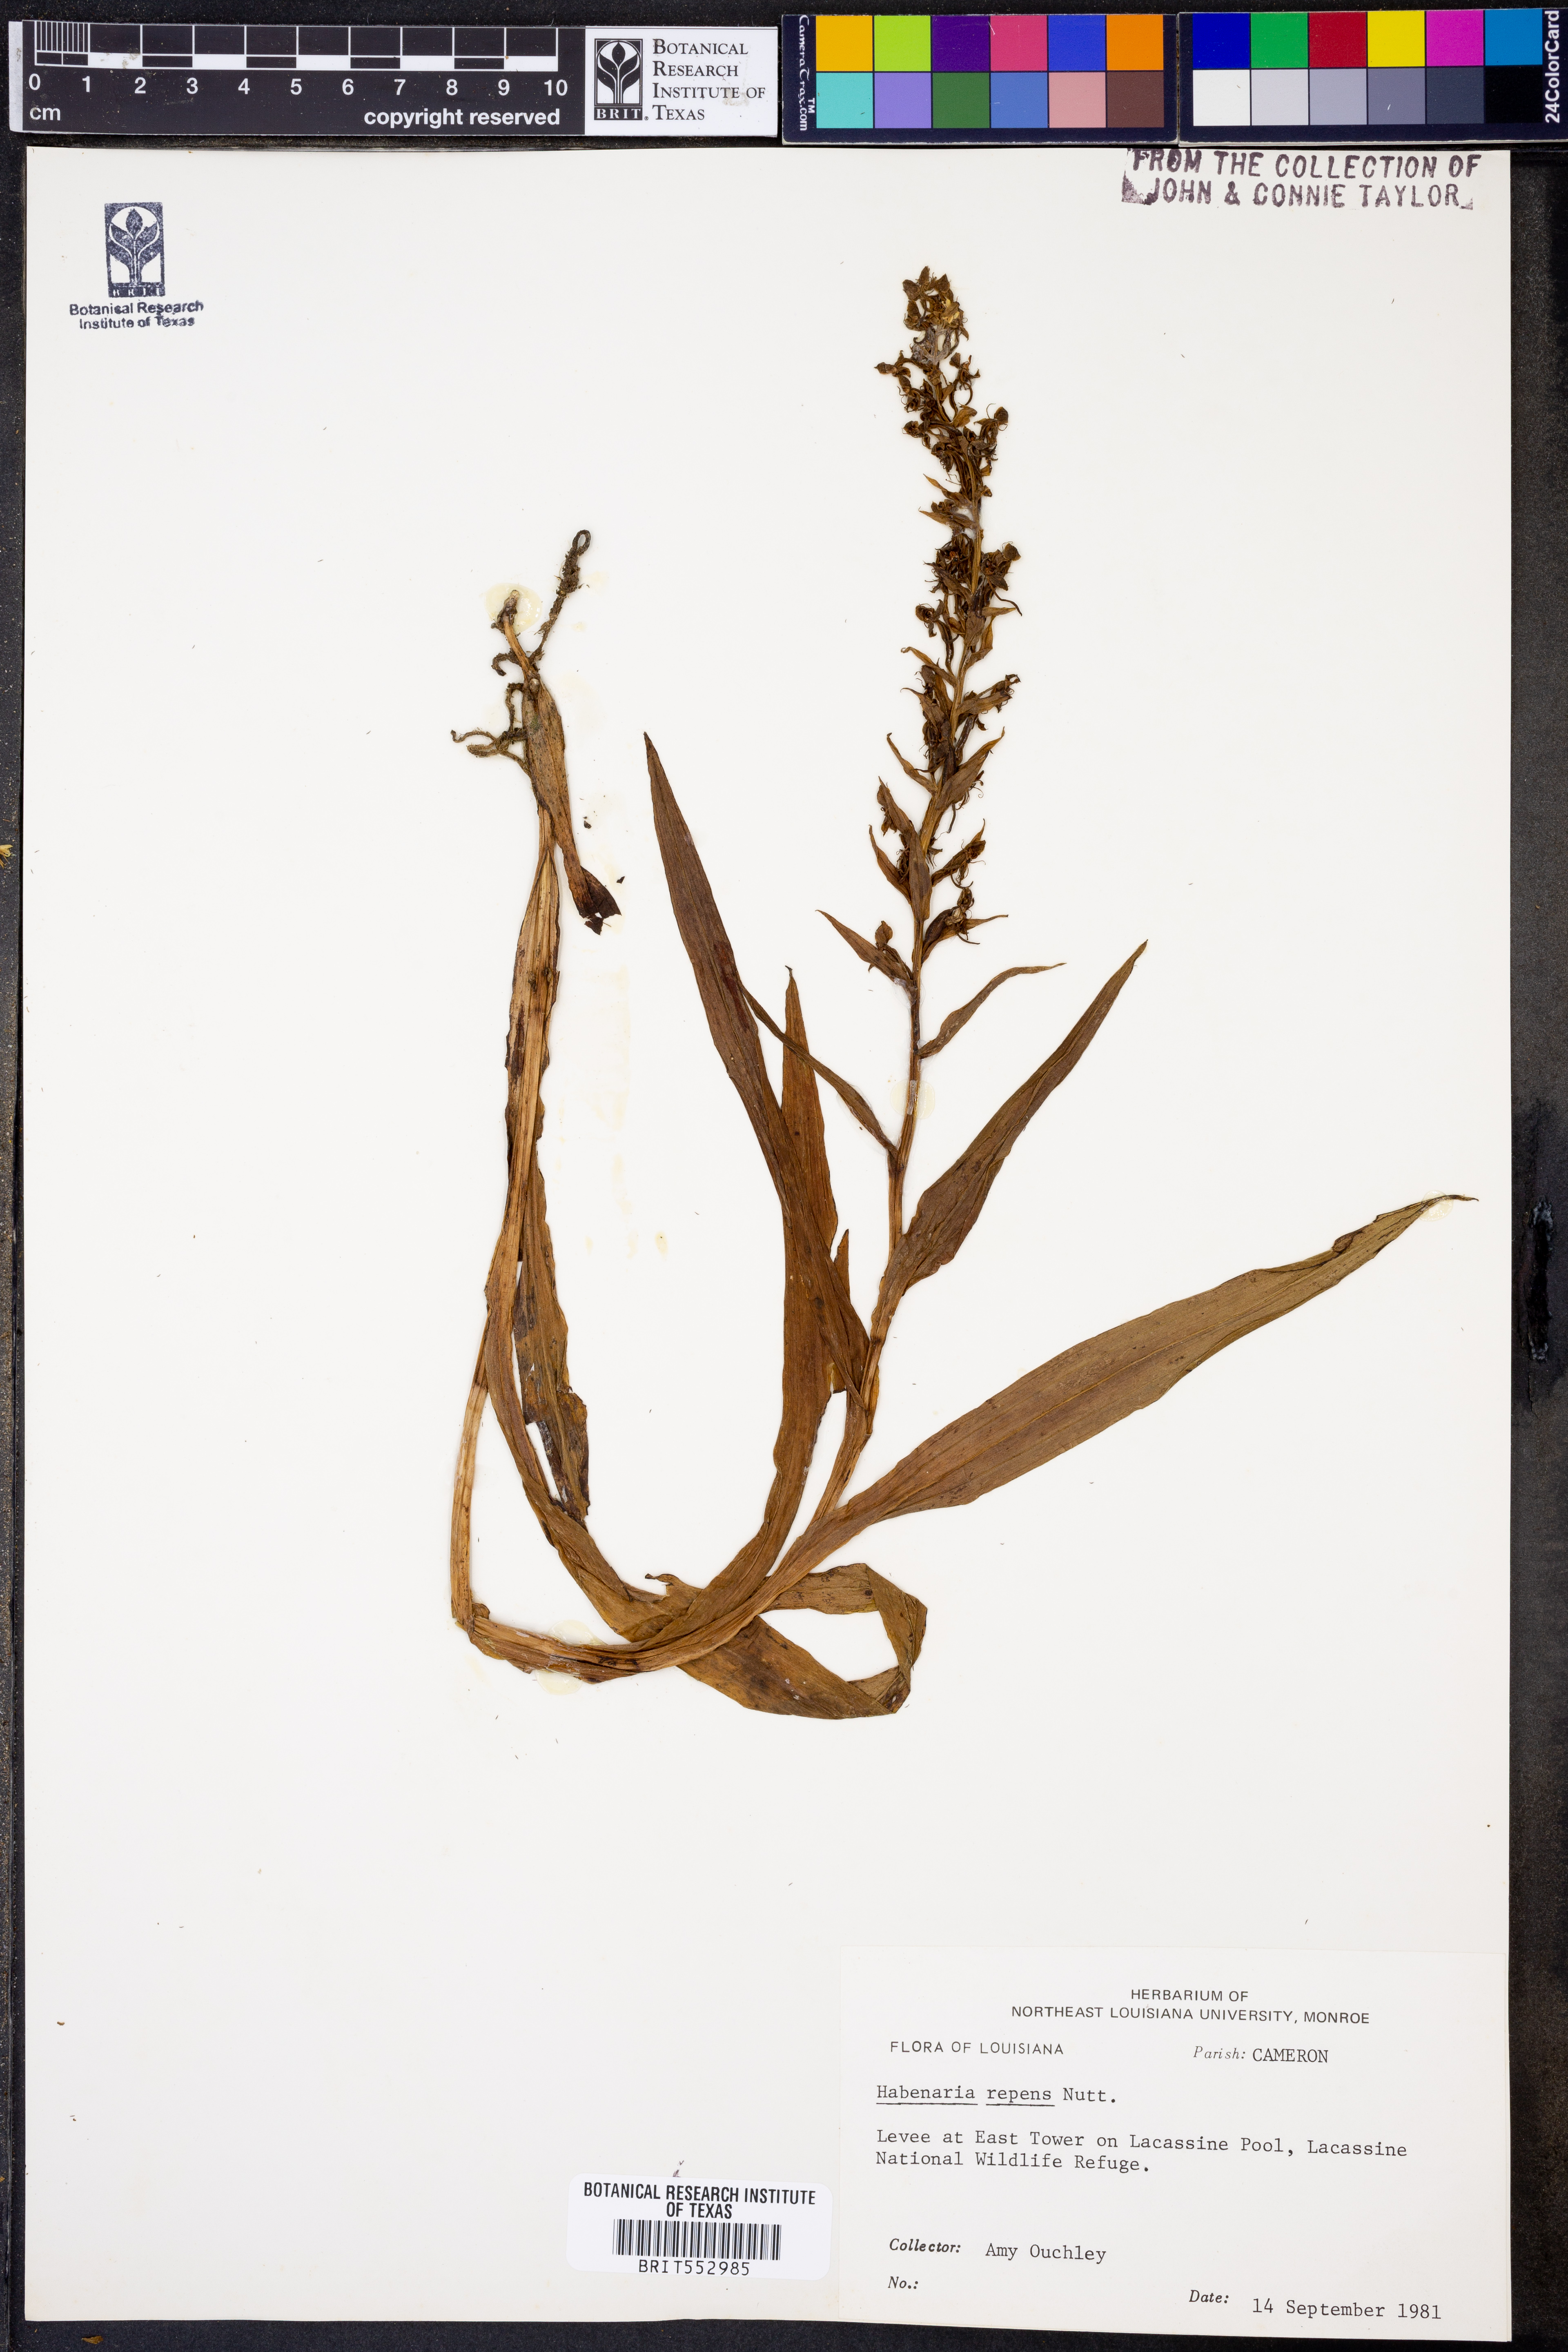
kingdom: Plantae
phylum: Tracheophyta
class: Liliopsida
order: Asparagales
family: Orchidaceae
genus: Habenaria
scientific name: Habenaria repens
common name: Water orchid
